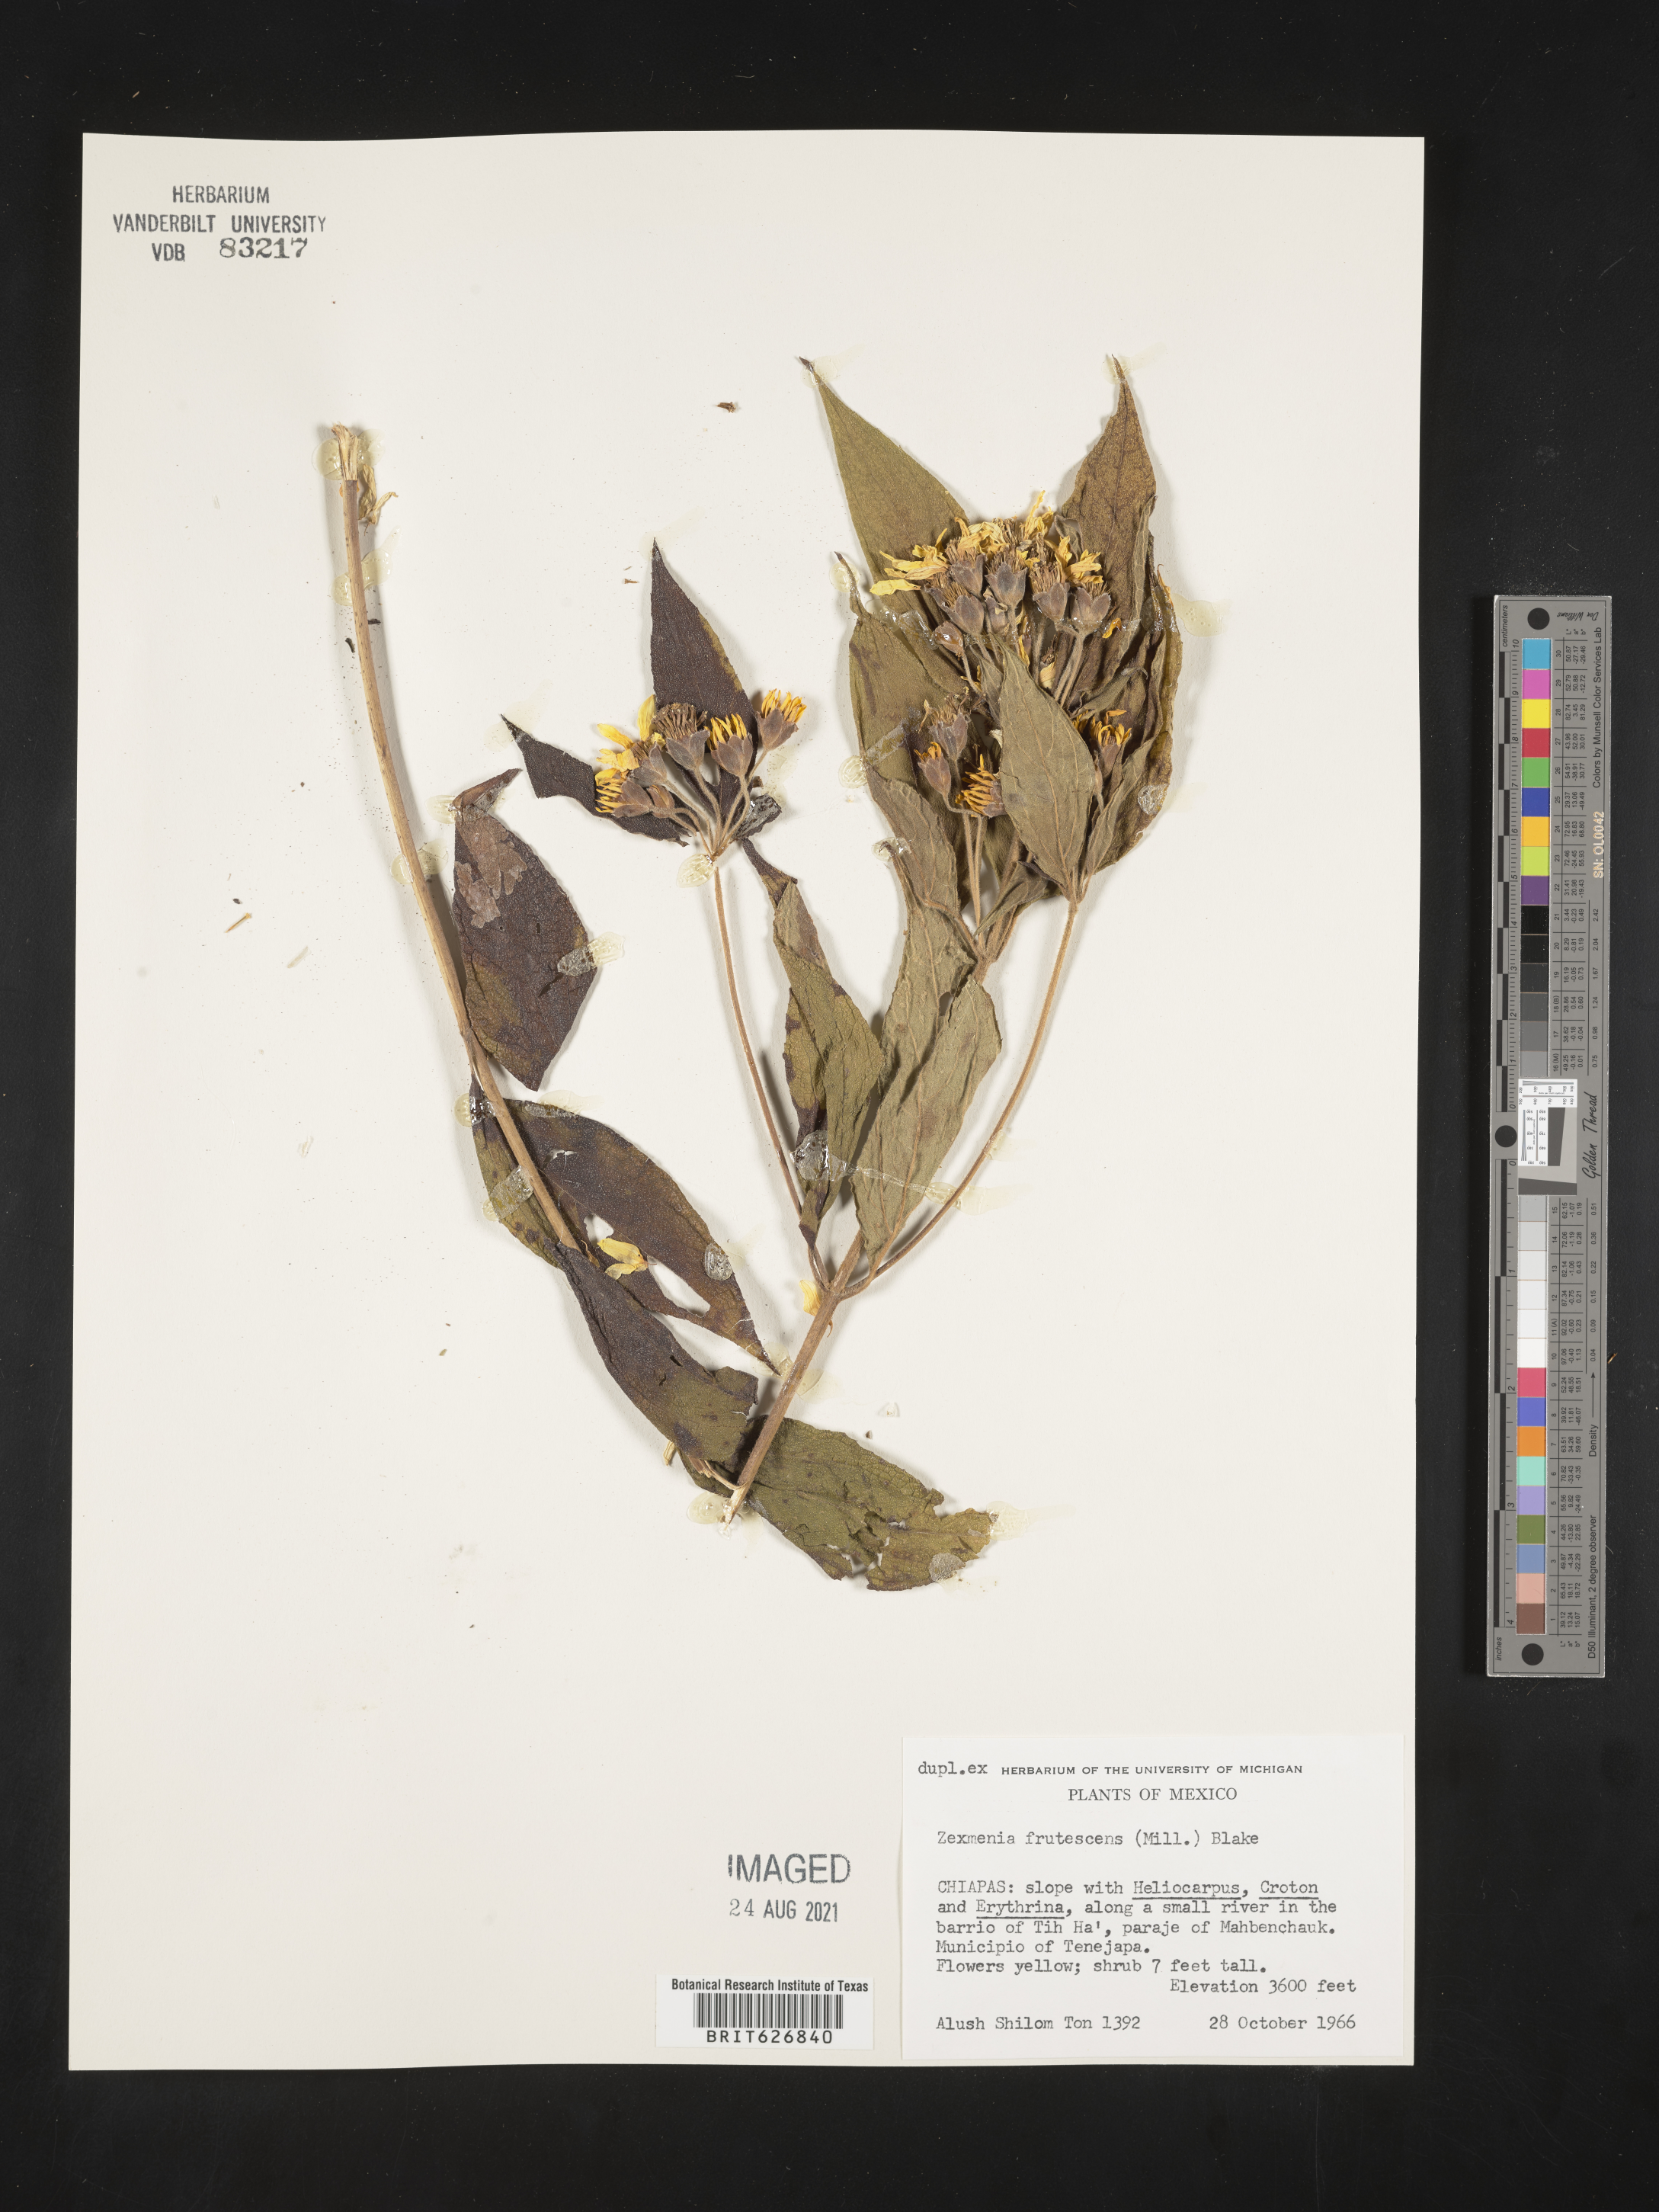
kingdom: Plantae
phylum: Tracheophyta
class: Magnoliopsida
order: Asterales
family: Asteraceae
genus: Zexmenia
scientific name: Zexmenia
